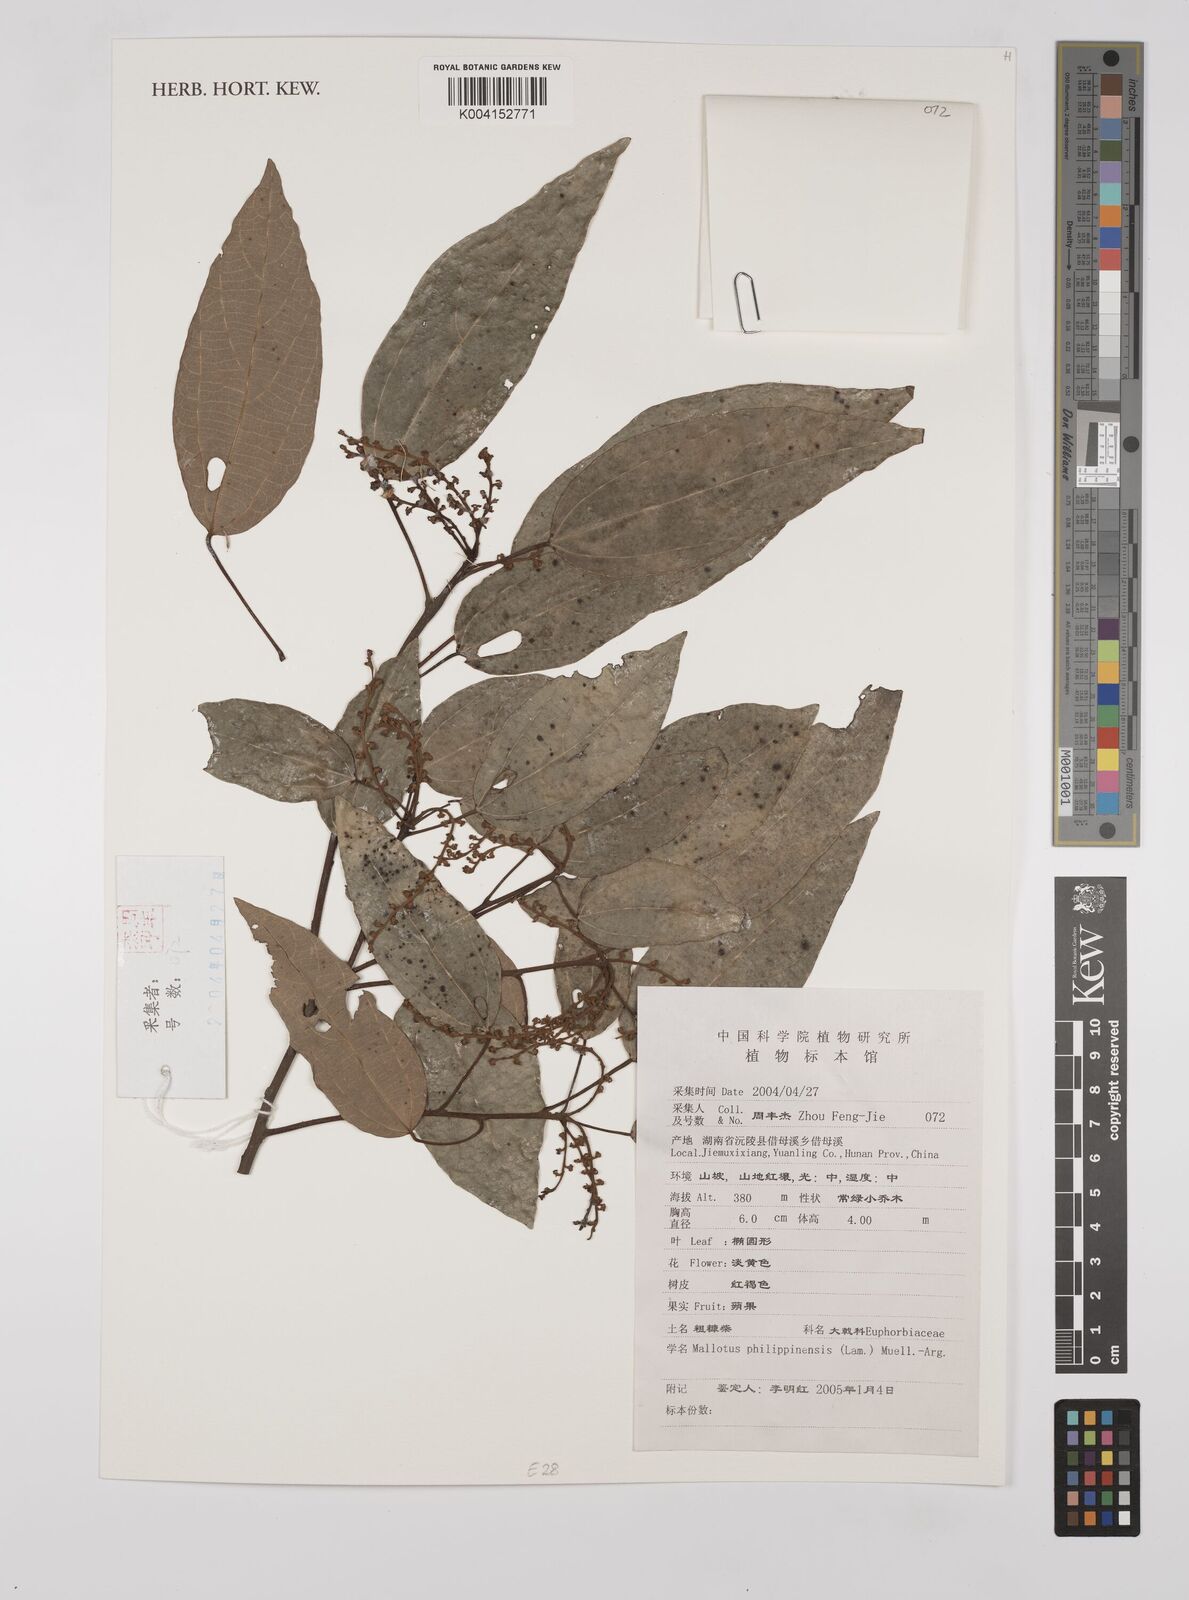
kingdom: Plantae
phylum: Tracheophyta
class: Magnoliopsida
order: Malpighiales
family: Euphorbiaceae
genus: Mallotus
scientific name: Mallotus philippensis
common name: Kamala tree
